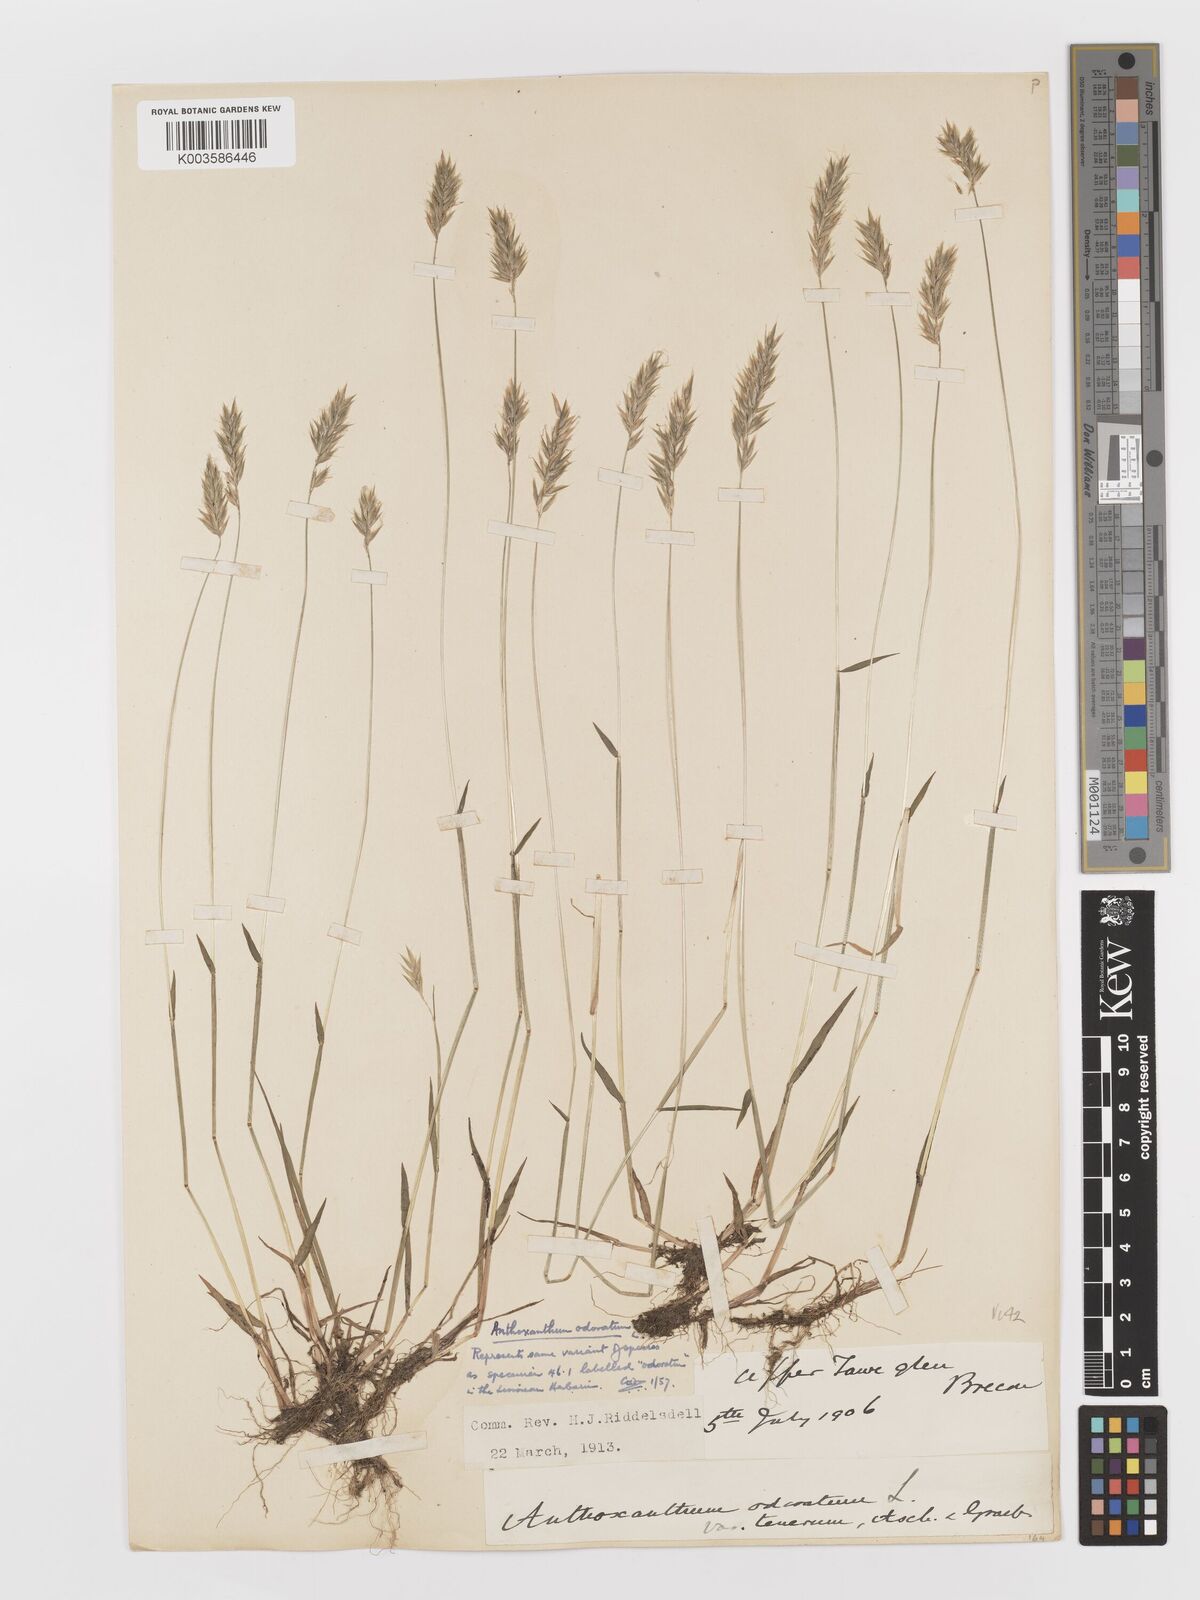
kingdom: Plantae
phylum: Tracheophyta
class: Liliopsida
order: Poales
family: Poaceae
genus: Anthoxanthum
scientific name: Anthoxanthum odoratum
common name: Sweet vernalgrass
